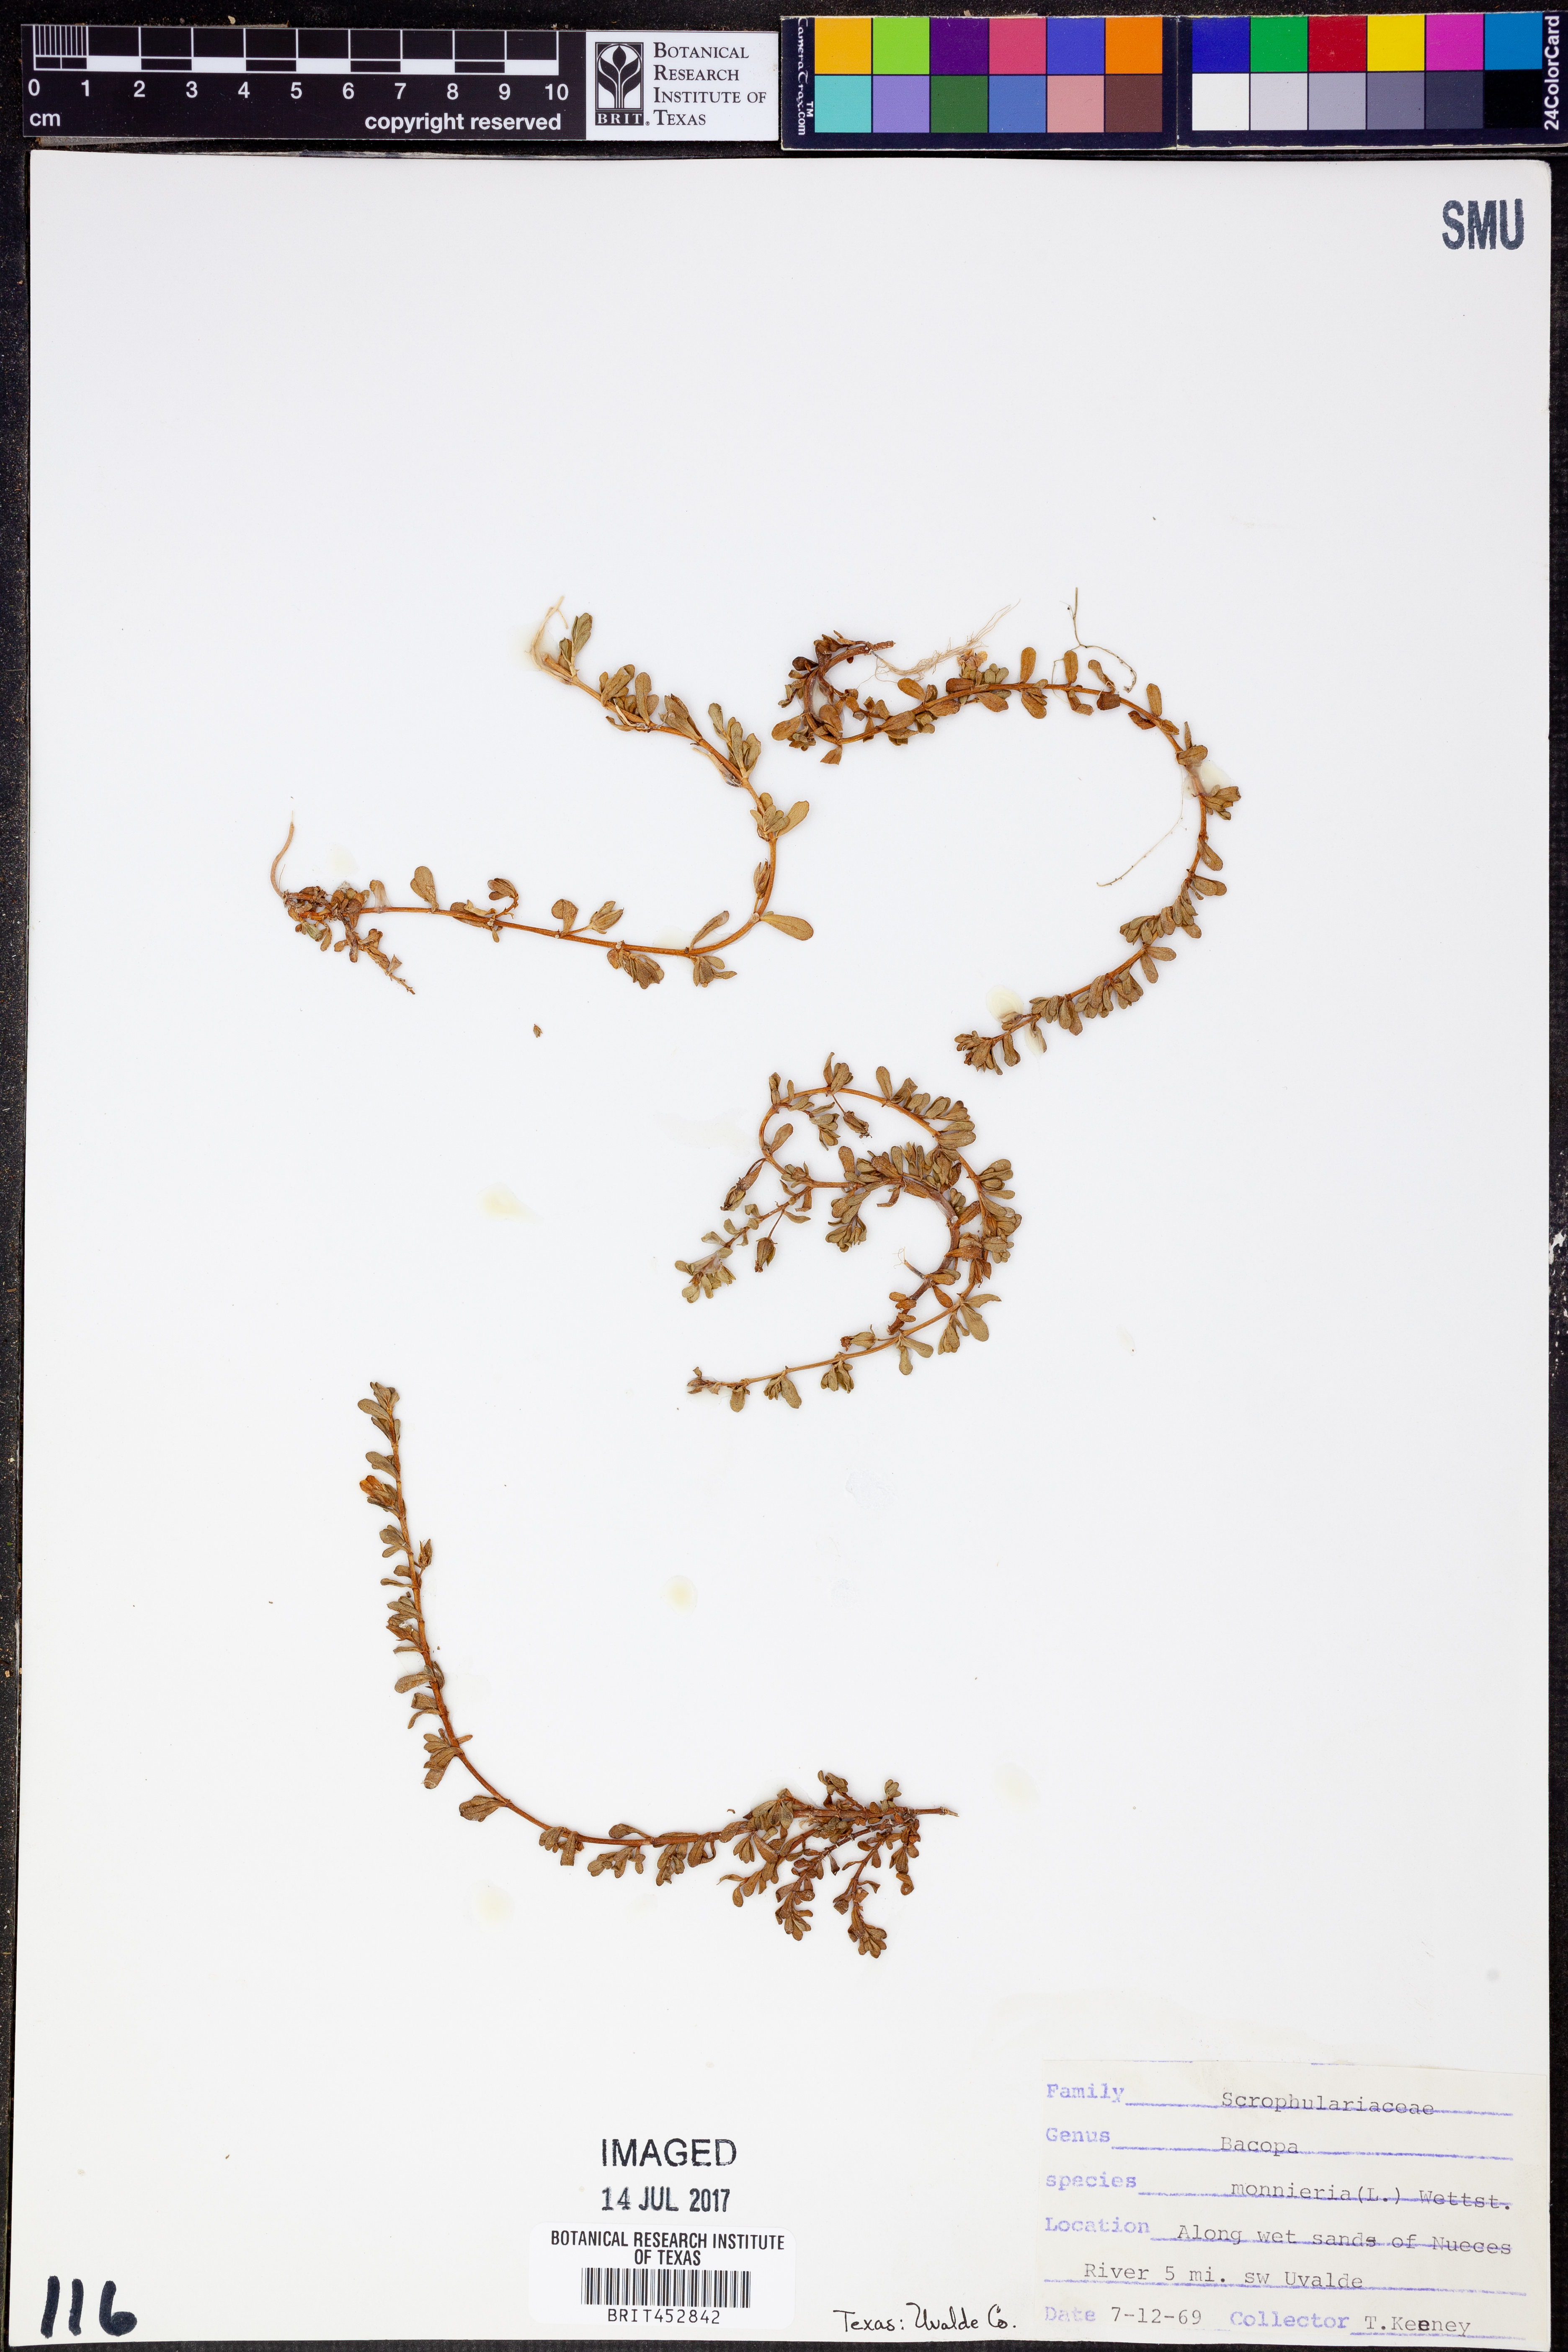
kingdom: Plantae
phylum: Tracheophyta
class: Magnoliopsida
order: Lamiales
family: Plantaginaceae
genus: Bacopa
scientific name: Bacopa monnieri
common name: Indian-pennywort
